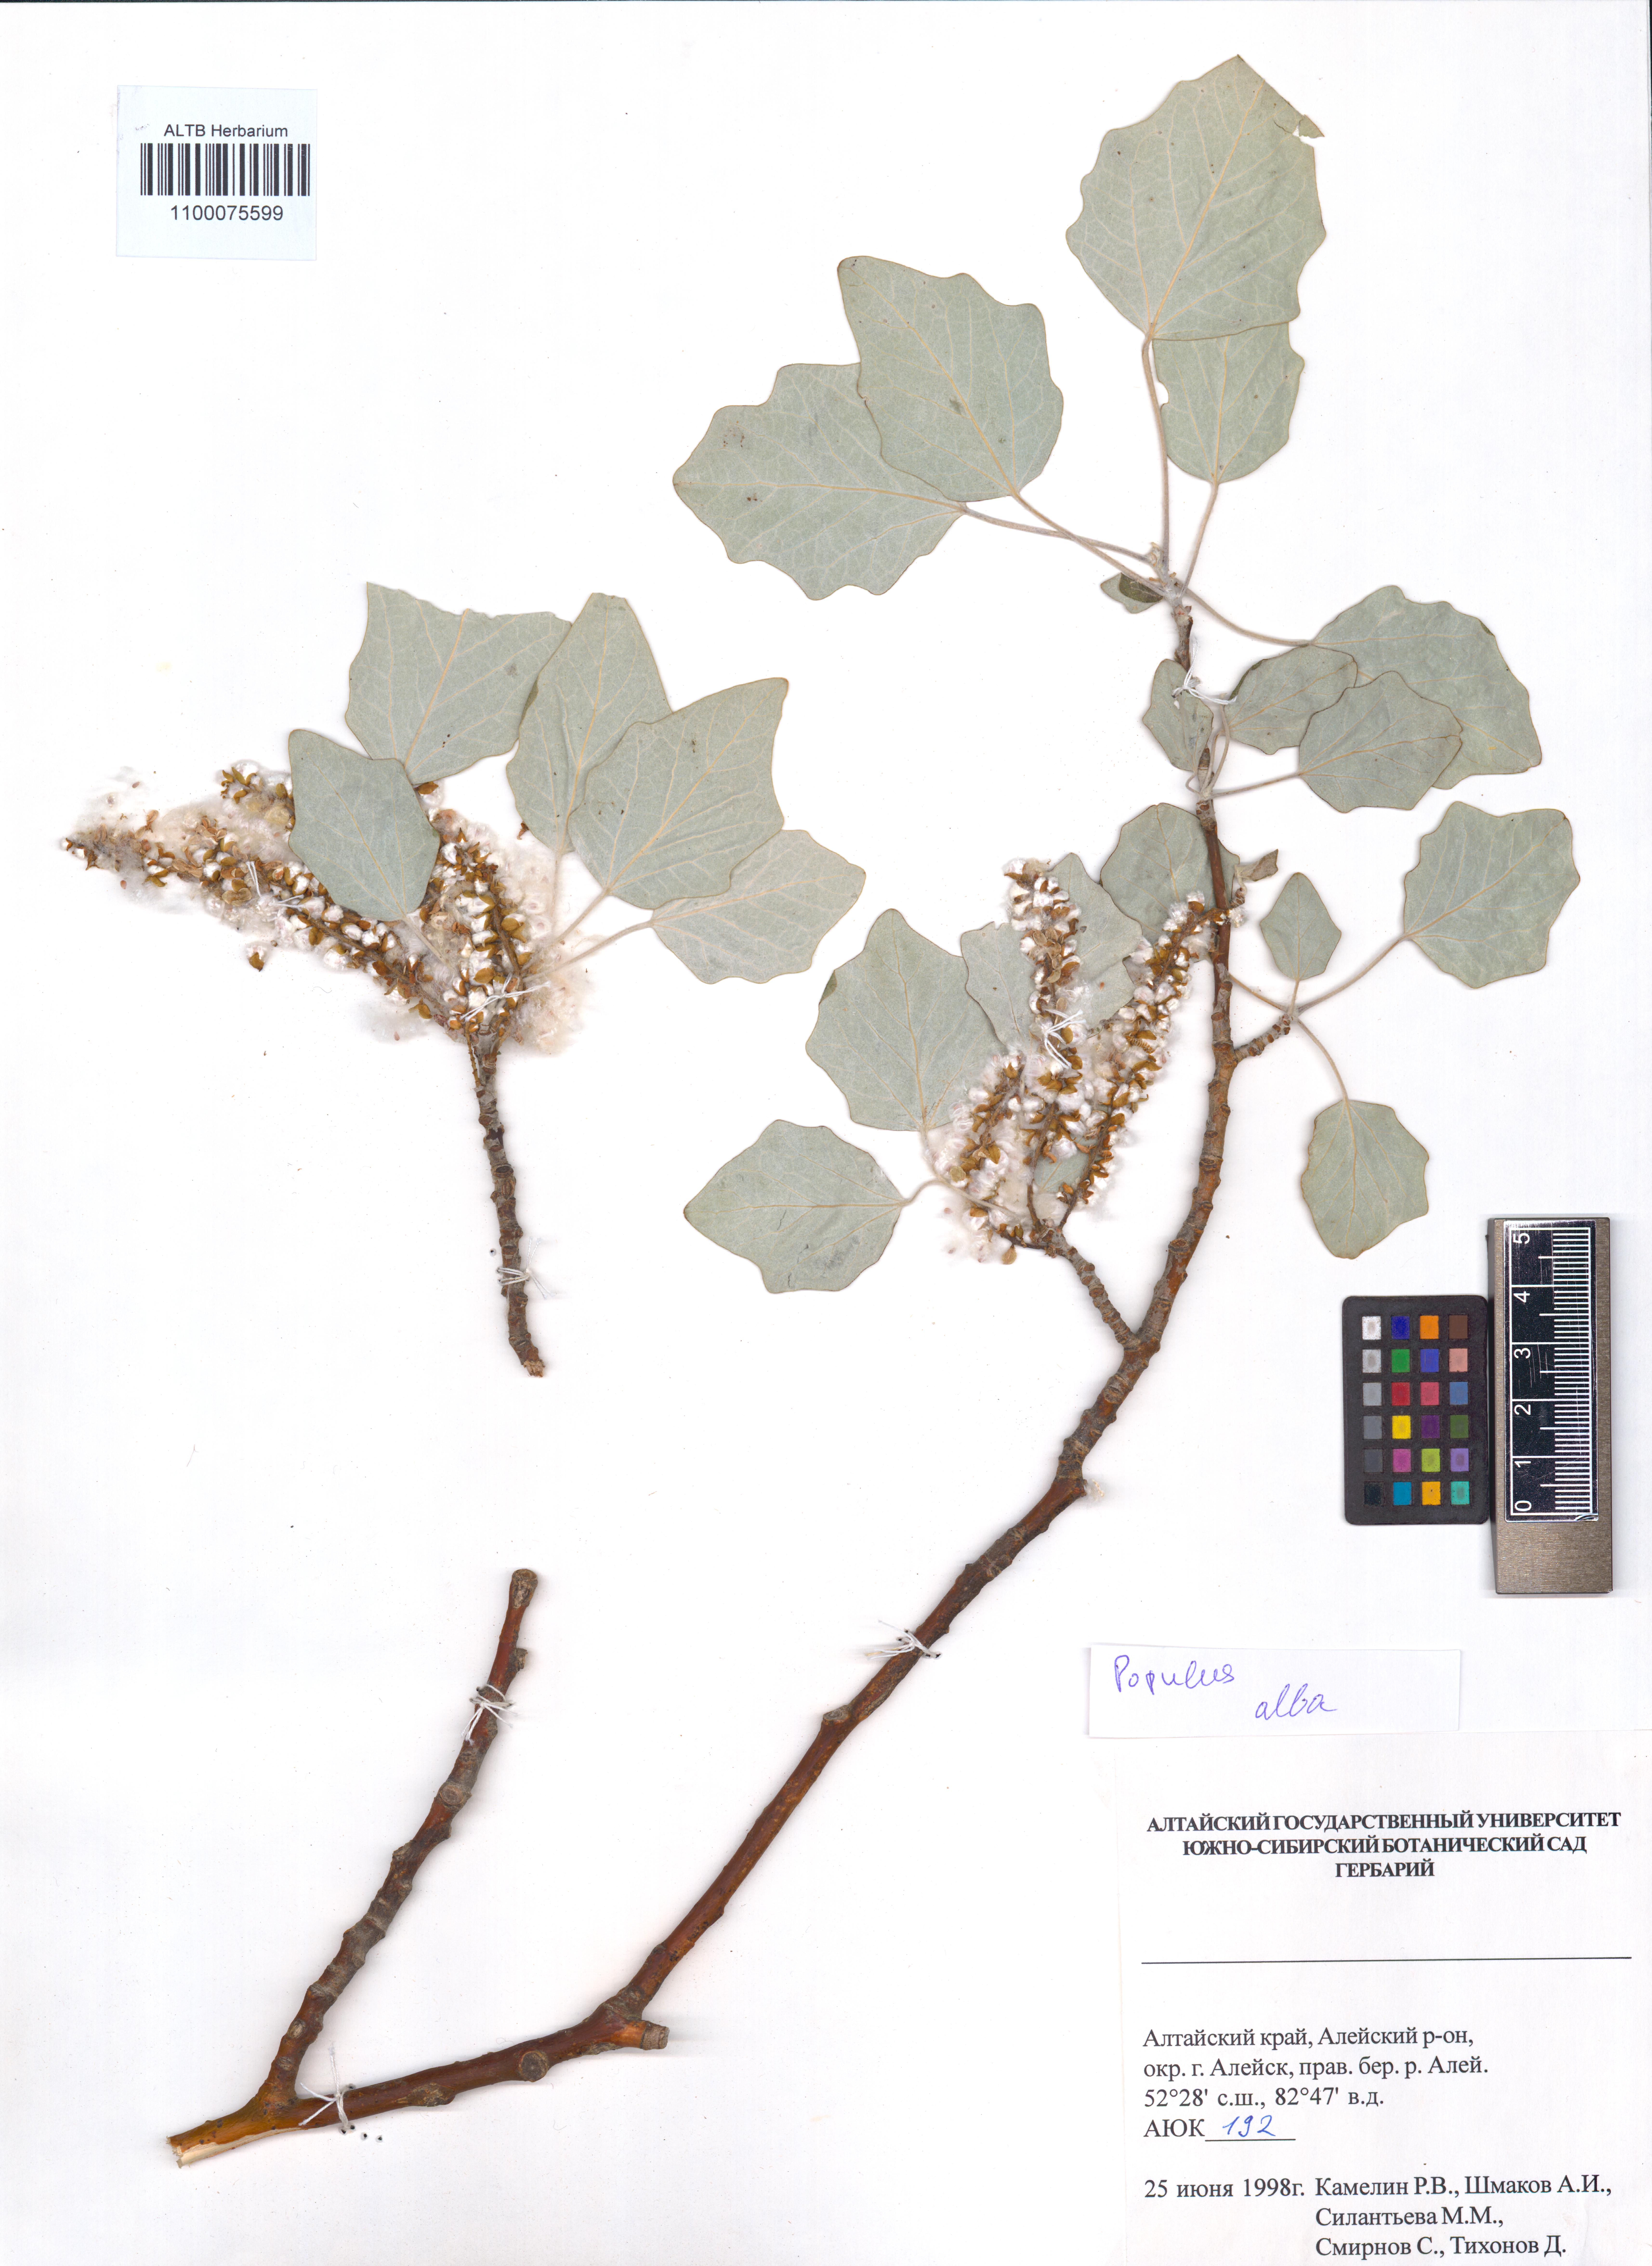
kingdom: Plantae
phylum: Tracheophyta
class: Magnoliopsida
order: Malpighiales
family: Salicaceae
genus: Populus
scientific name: Populus alba
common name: White poplar
